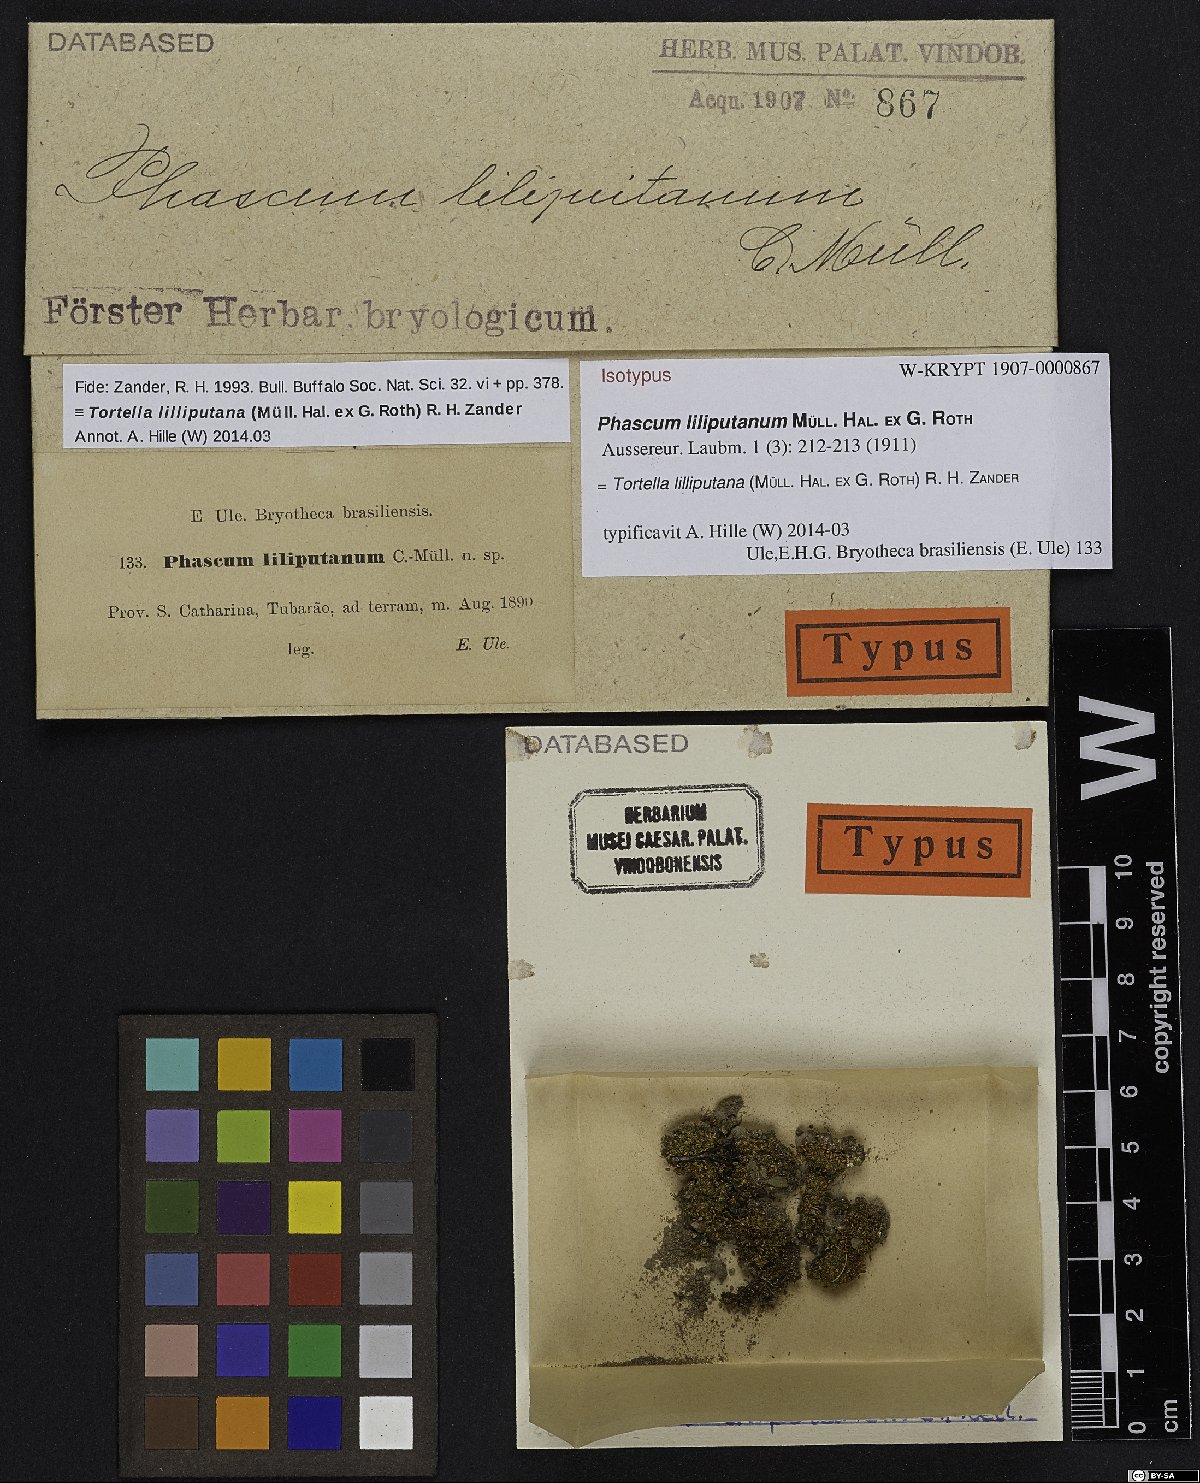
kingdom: Plantae
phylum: Bryophyta
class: Bryopsida
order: Pottiales
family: Pottiaceae
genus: Anaschisma
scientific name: Anaschisma lilliputanum
